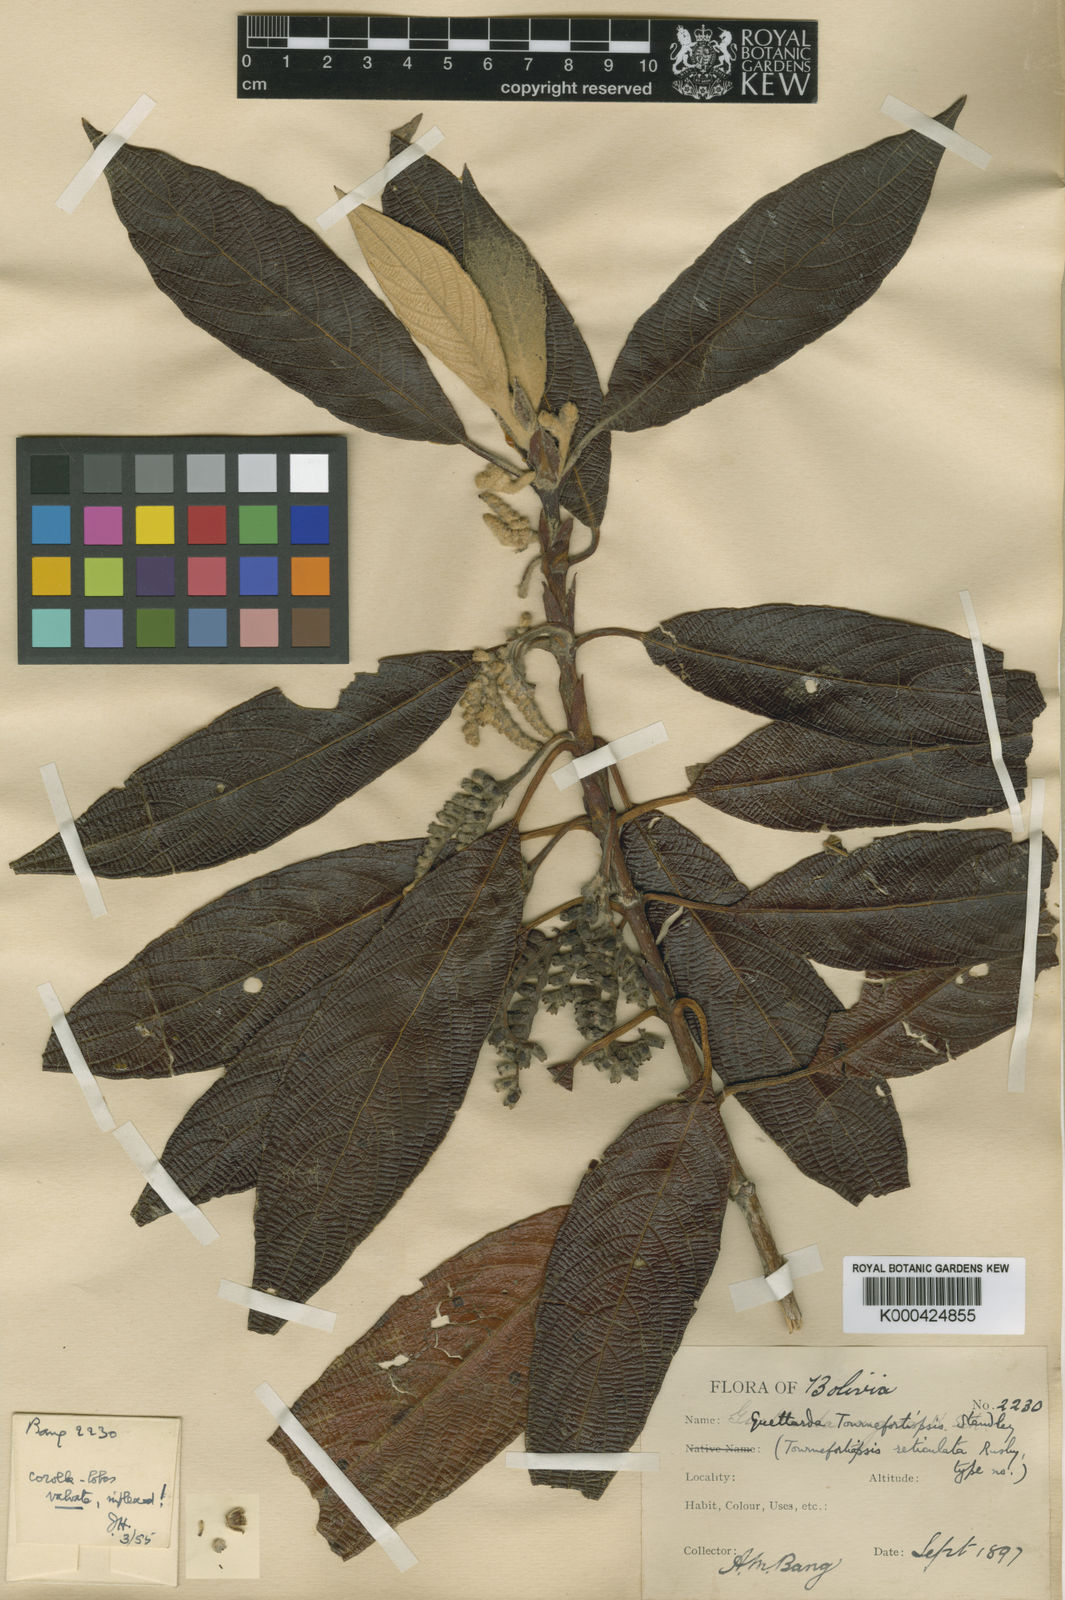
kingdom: Plantae
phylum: Tracheophyta
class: Magnoliopsida
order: Gentianales
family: Rubiaceae
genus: Tournefortiopsis
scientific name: Tournefortiopsis reticulata
